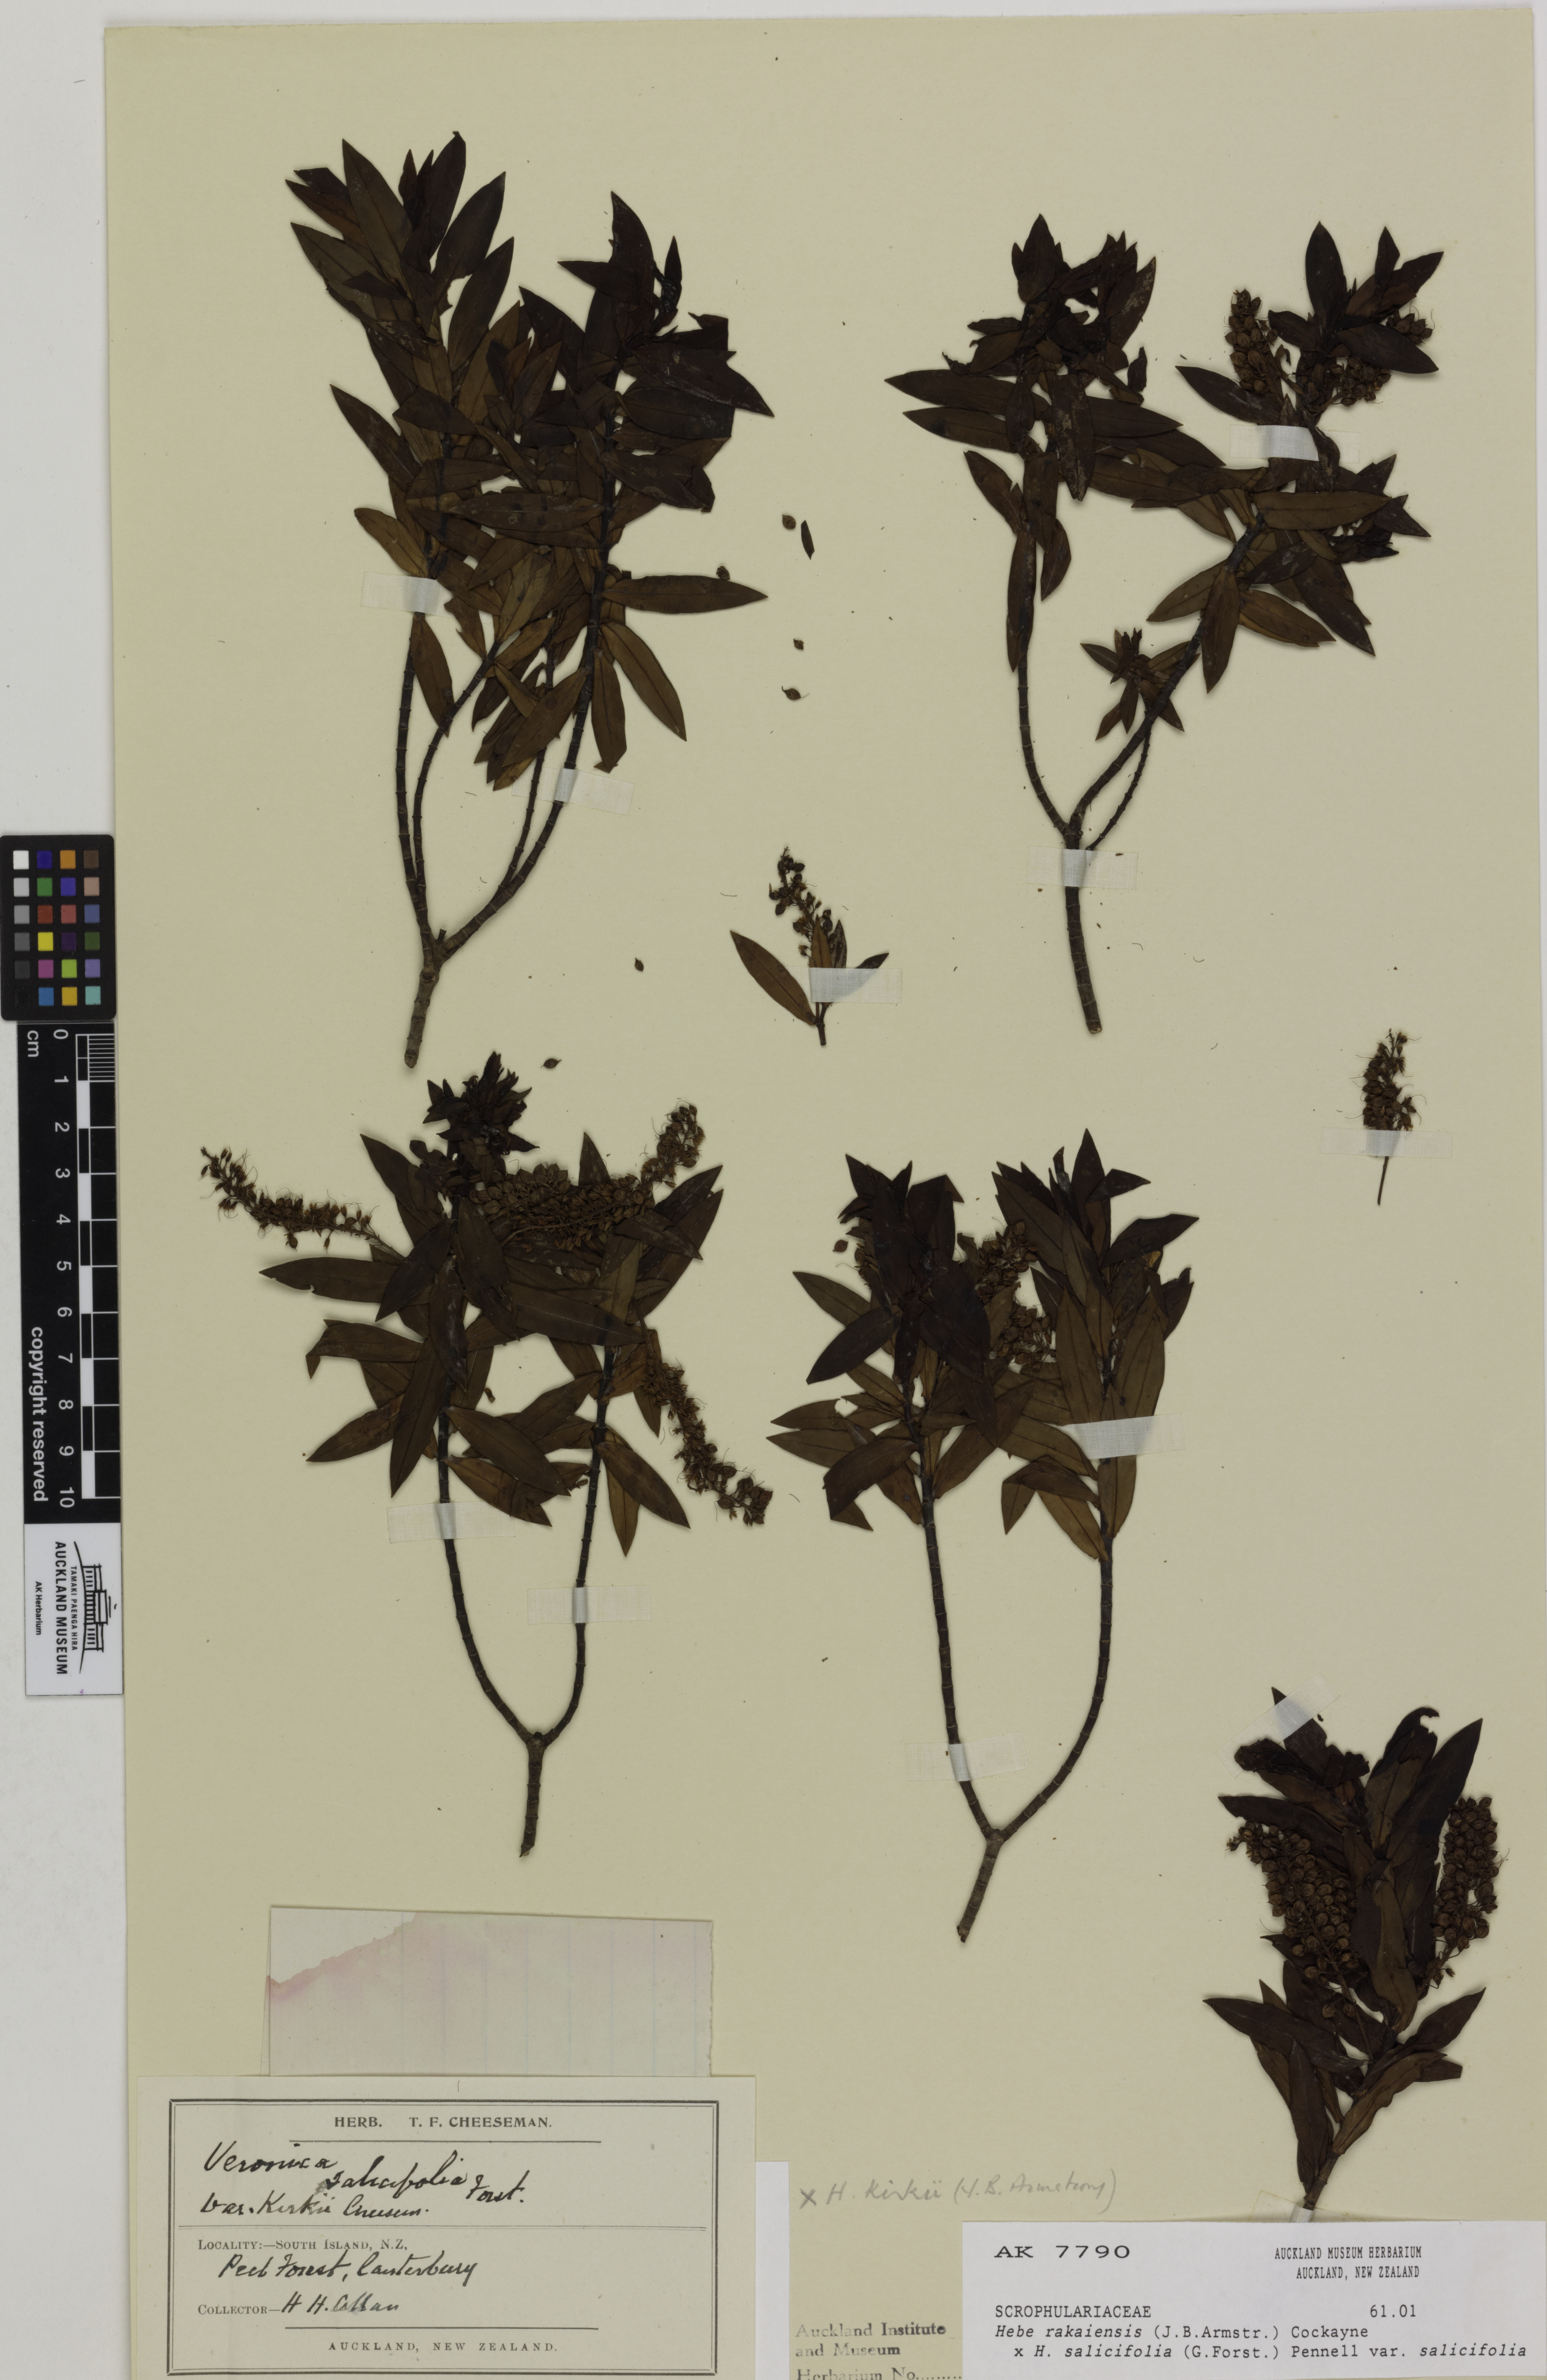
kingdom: Plantae
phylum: Tracheophyta
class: Magnoliopsida
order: Lamiales
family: Plantaginaceae
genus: Veronica
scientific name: Veronica
